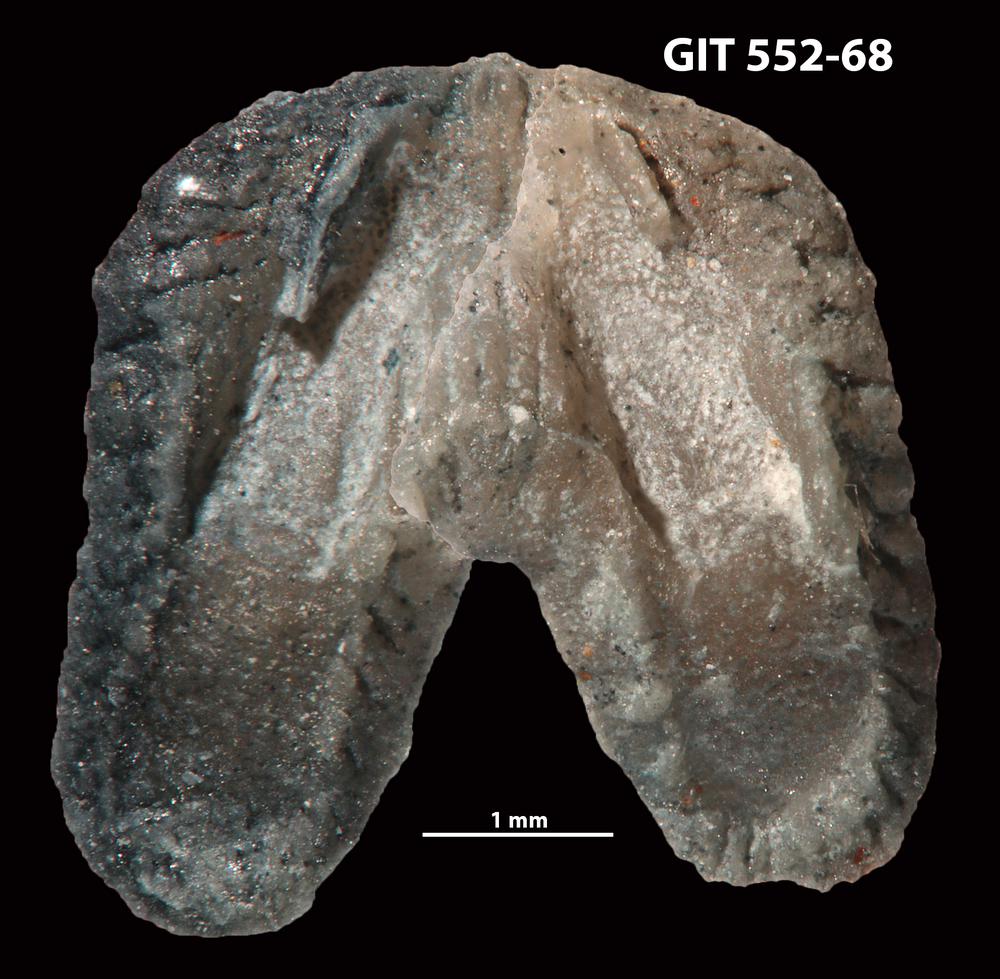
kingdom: Animalia
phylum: Brachiopoda
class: Rhynchonellata
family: Dicoelosiidae
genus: Dicoelosia
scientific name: Dicoelosia osloensis
